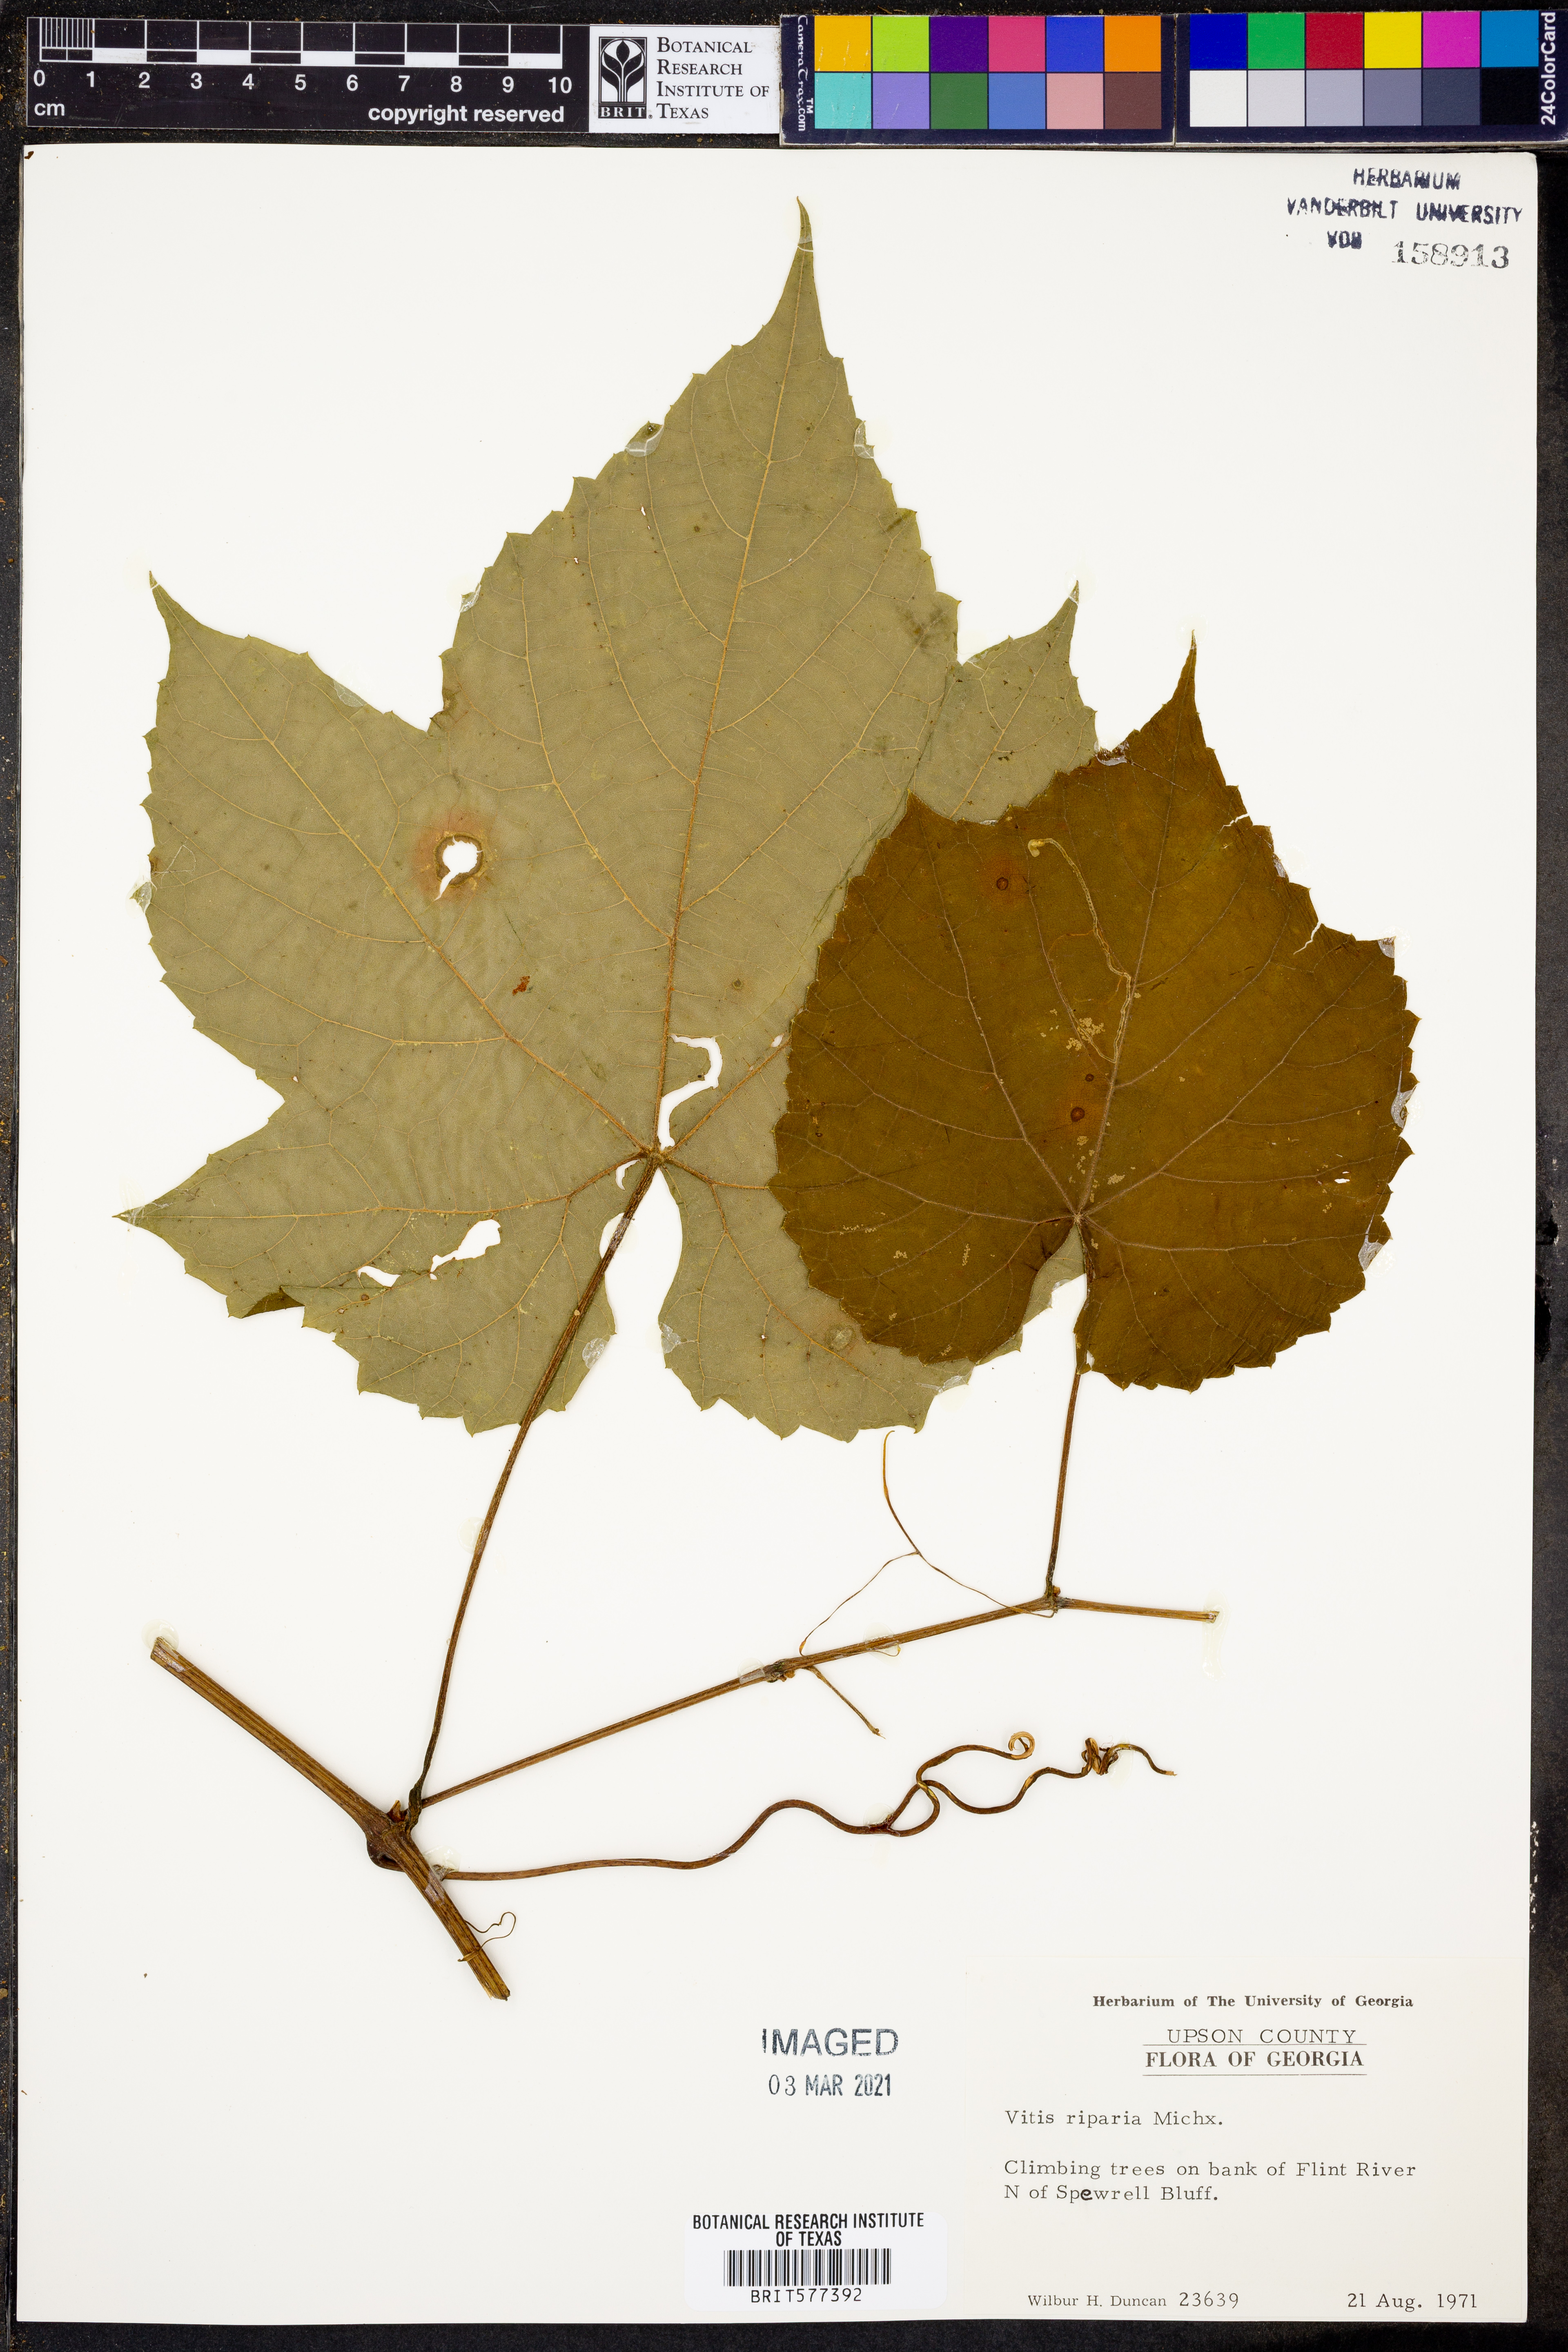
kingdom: Plantae
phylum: Tracheophyta
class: Magnoliopsida
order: Vitales
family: Vitaceae
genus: Vitis
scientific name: Vitis riparia
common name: Frost grape
